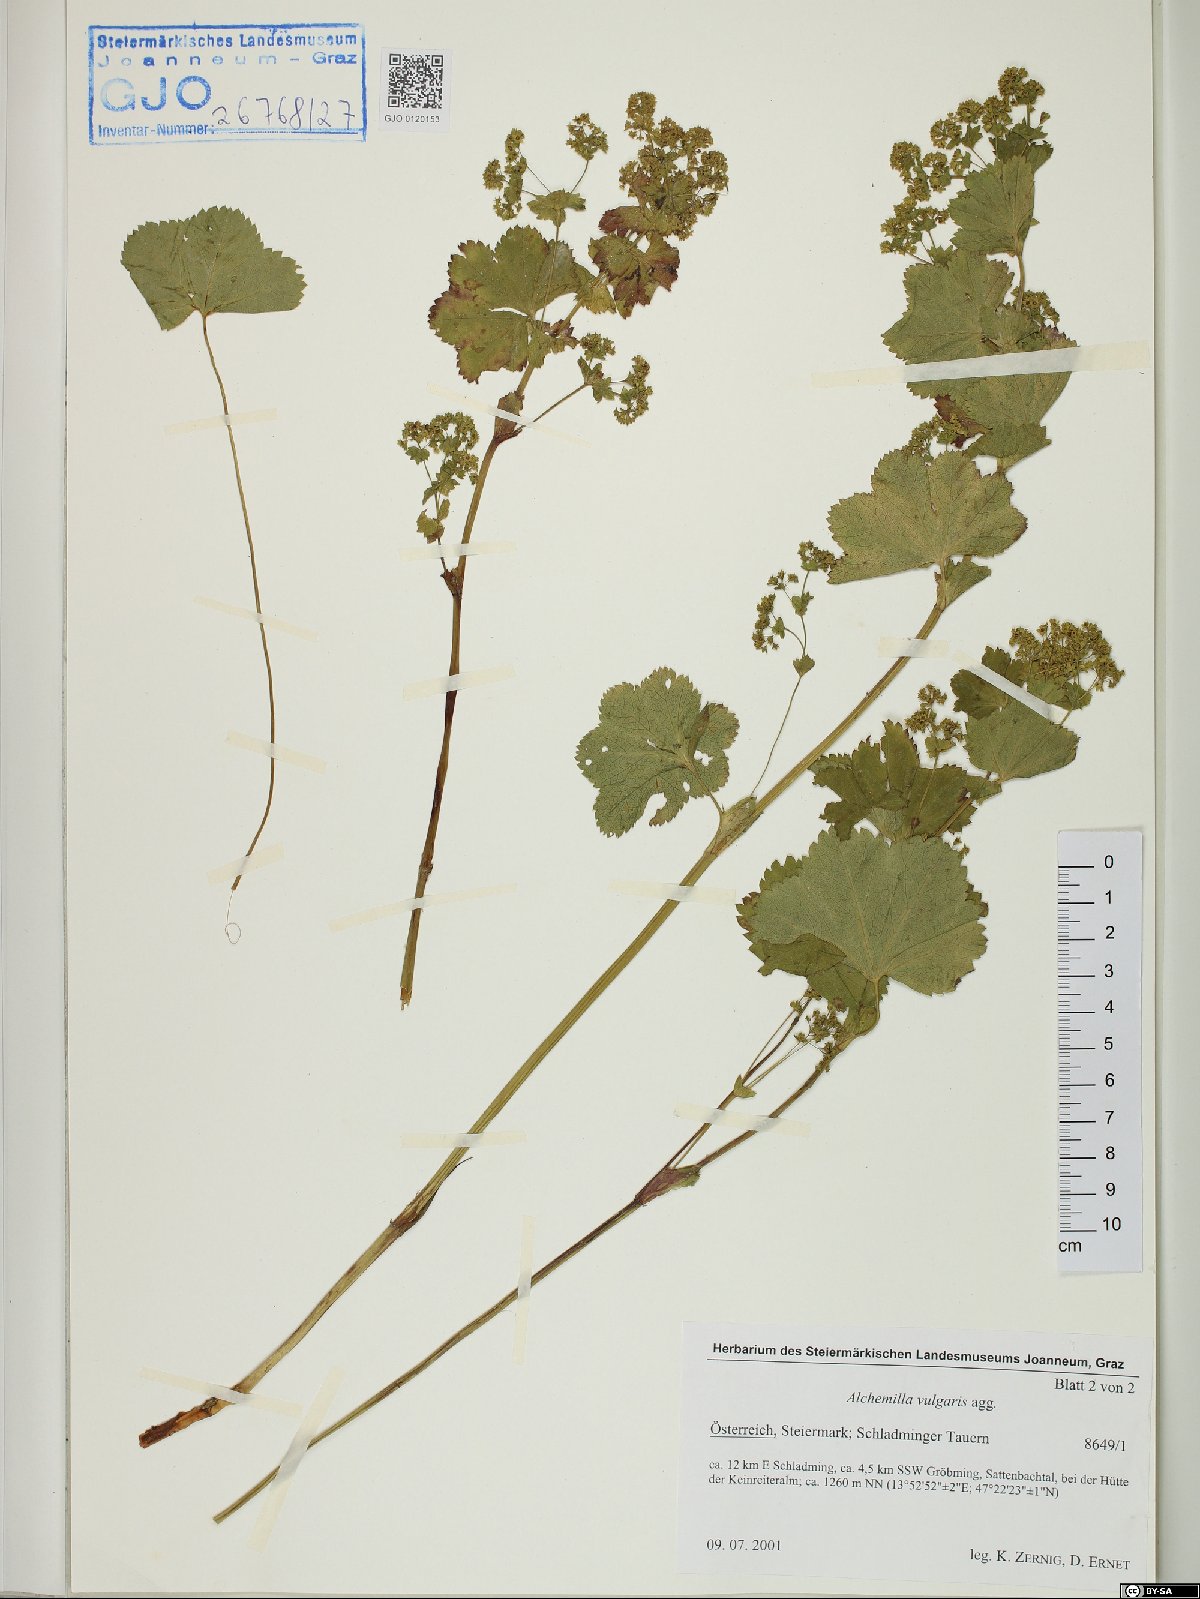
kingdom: Plantae
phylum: Tracheophyta
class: Magnoliopsida
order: Rosales
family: Rosaceae
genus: Alchemilla
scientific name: Alchemilla vulgaris
